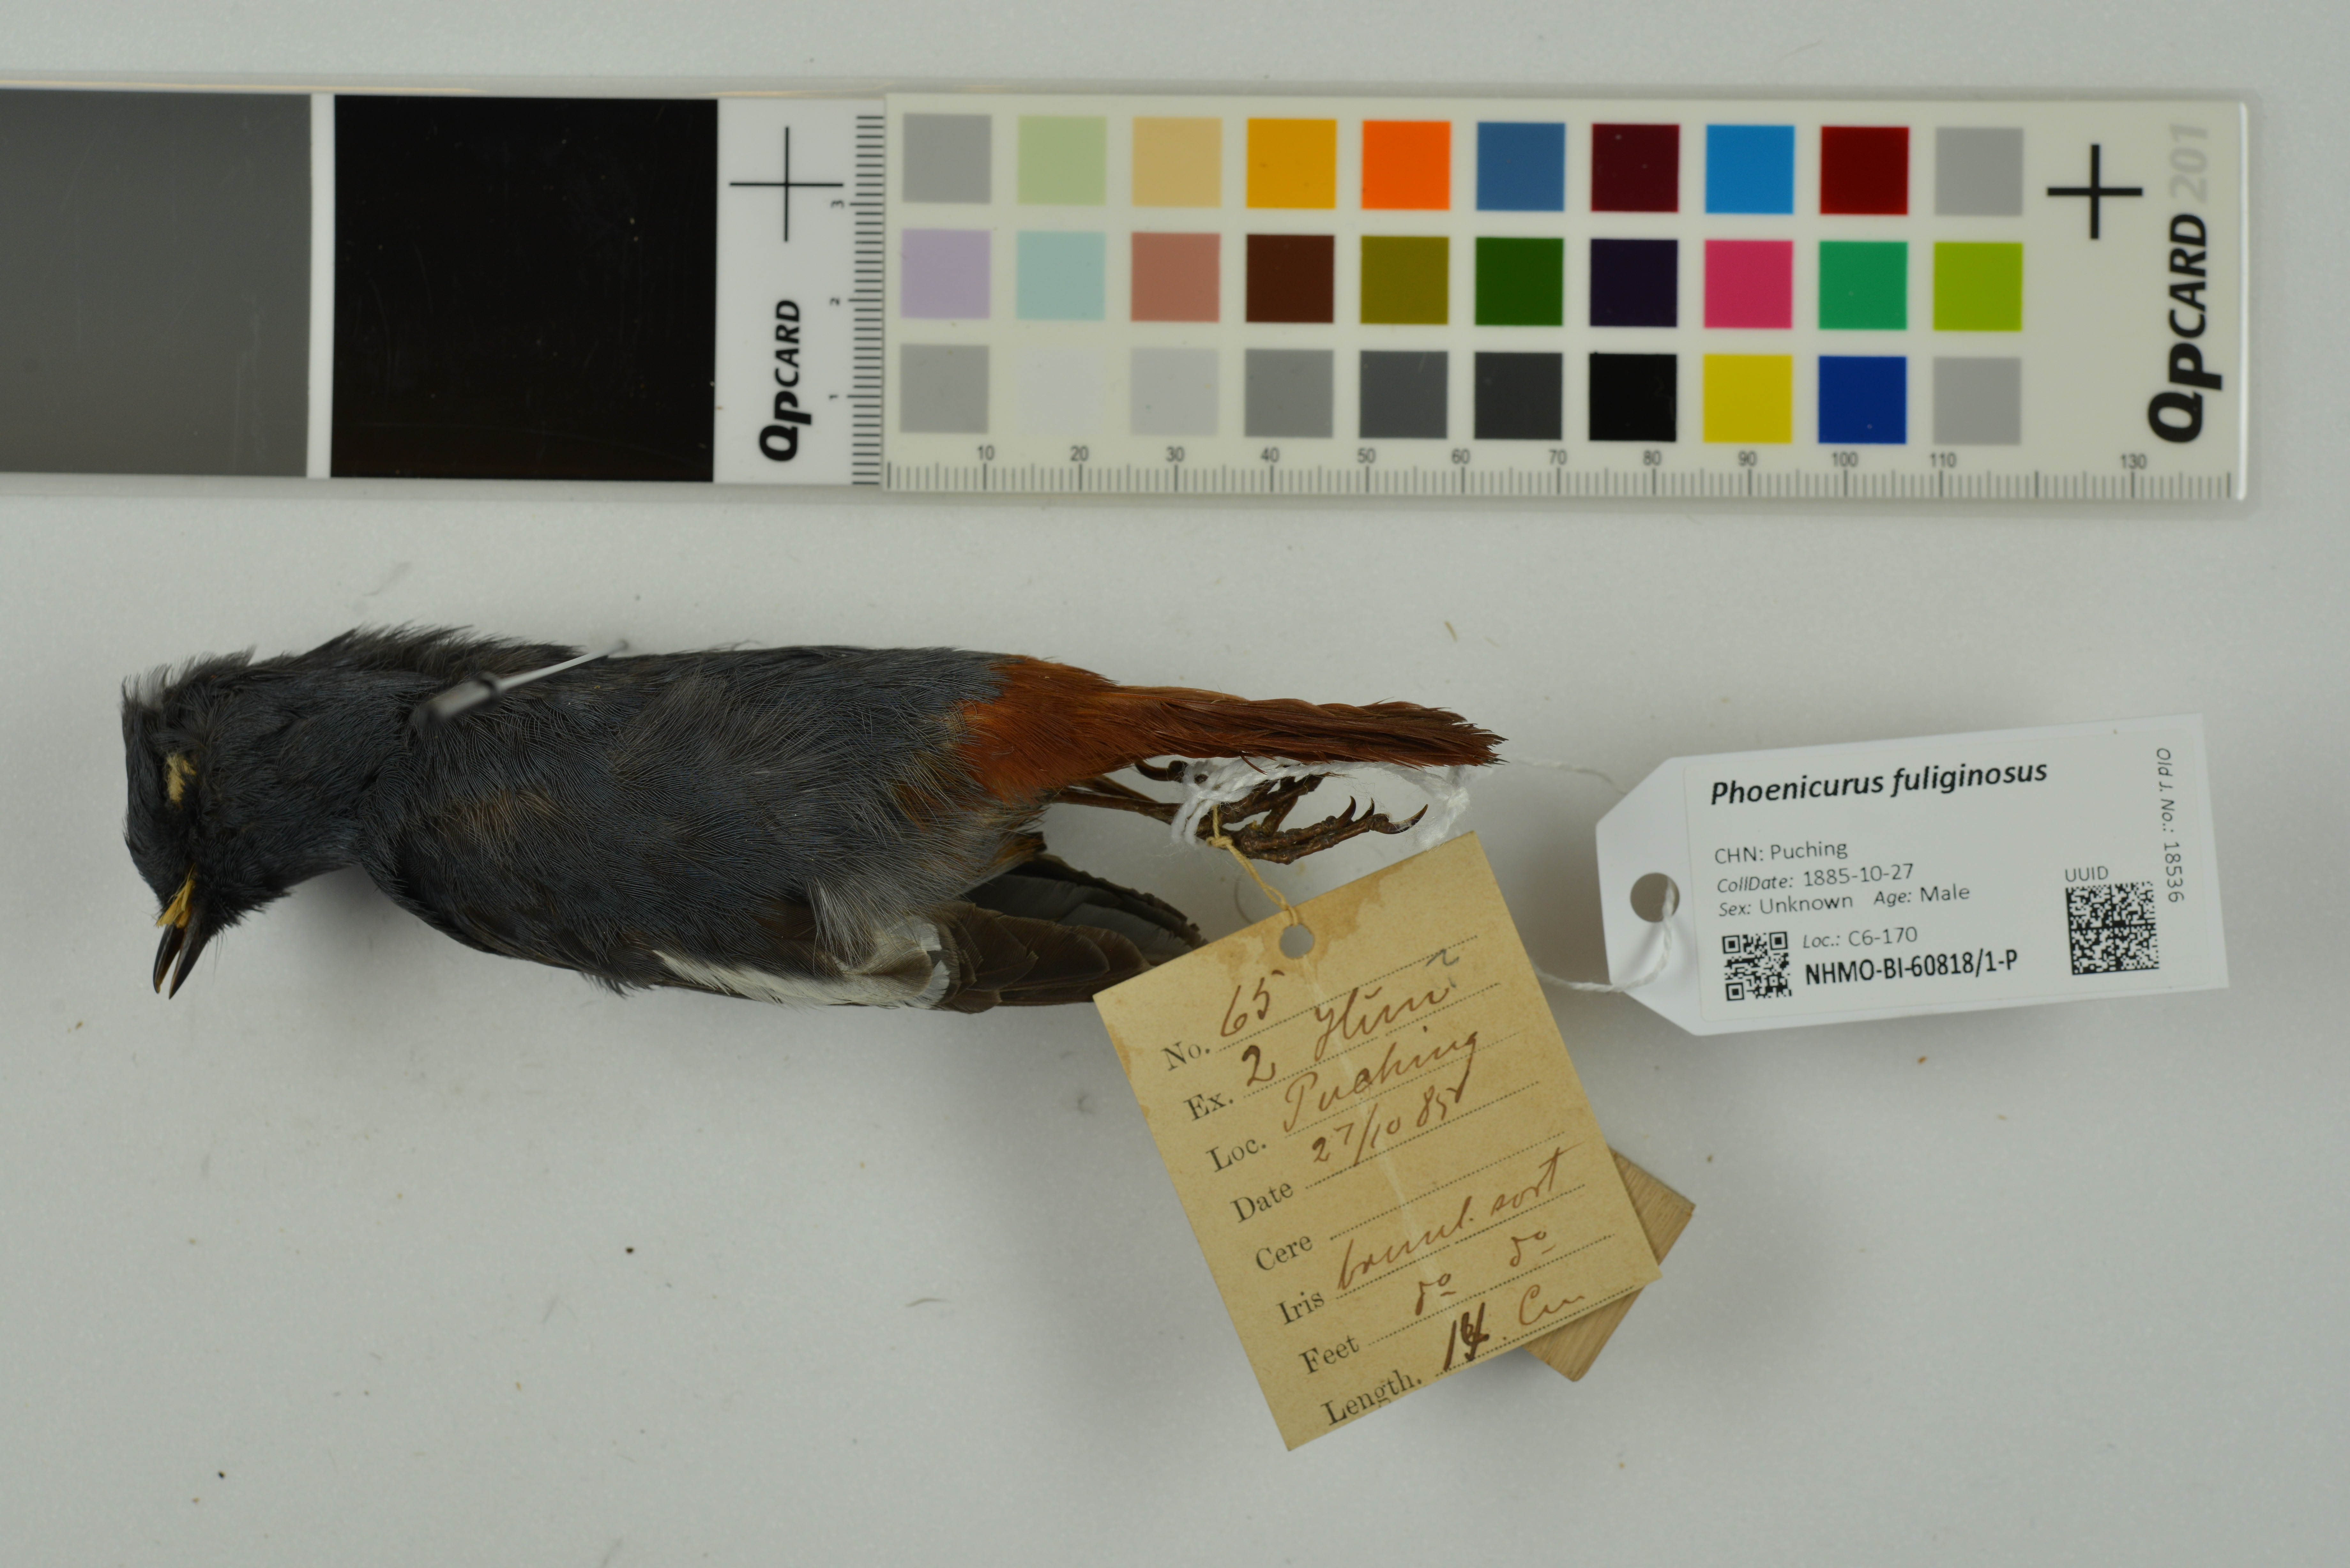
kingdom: Animalia
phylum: Chordata
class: Aves
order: Passeriformes
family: Muscicapidae
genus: Phoenicurus
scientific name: Phoenicurus fuliginosus
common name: Plumbeous water redstart
